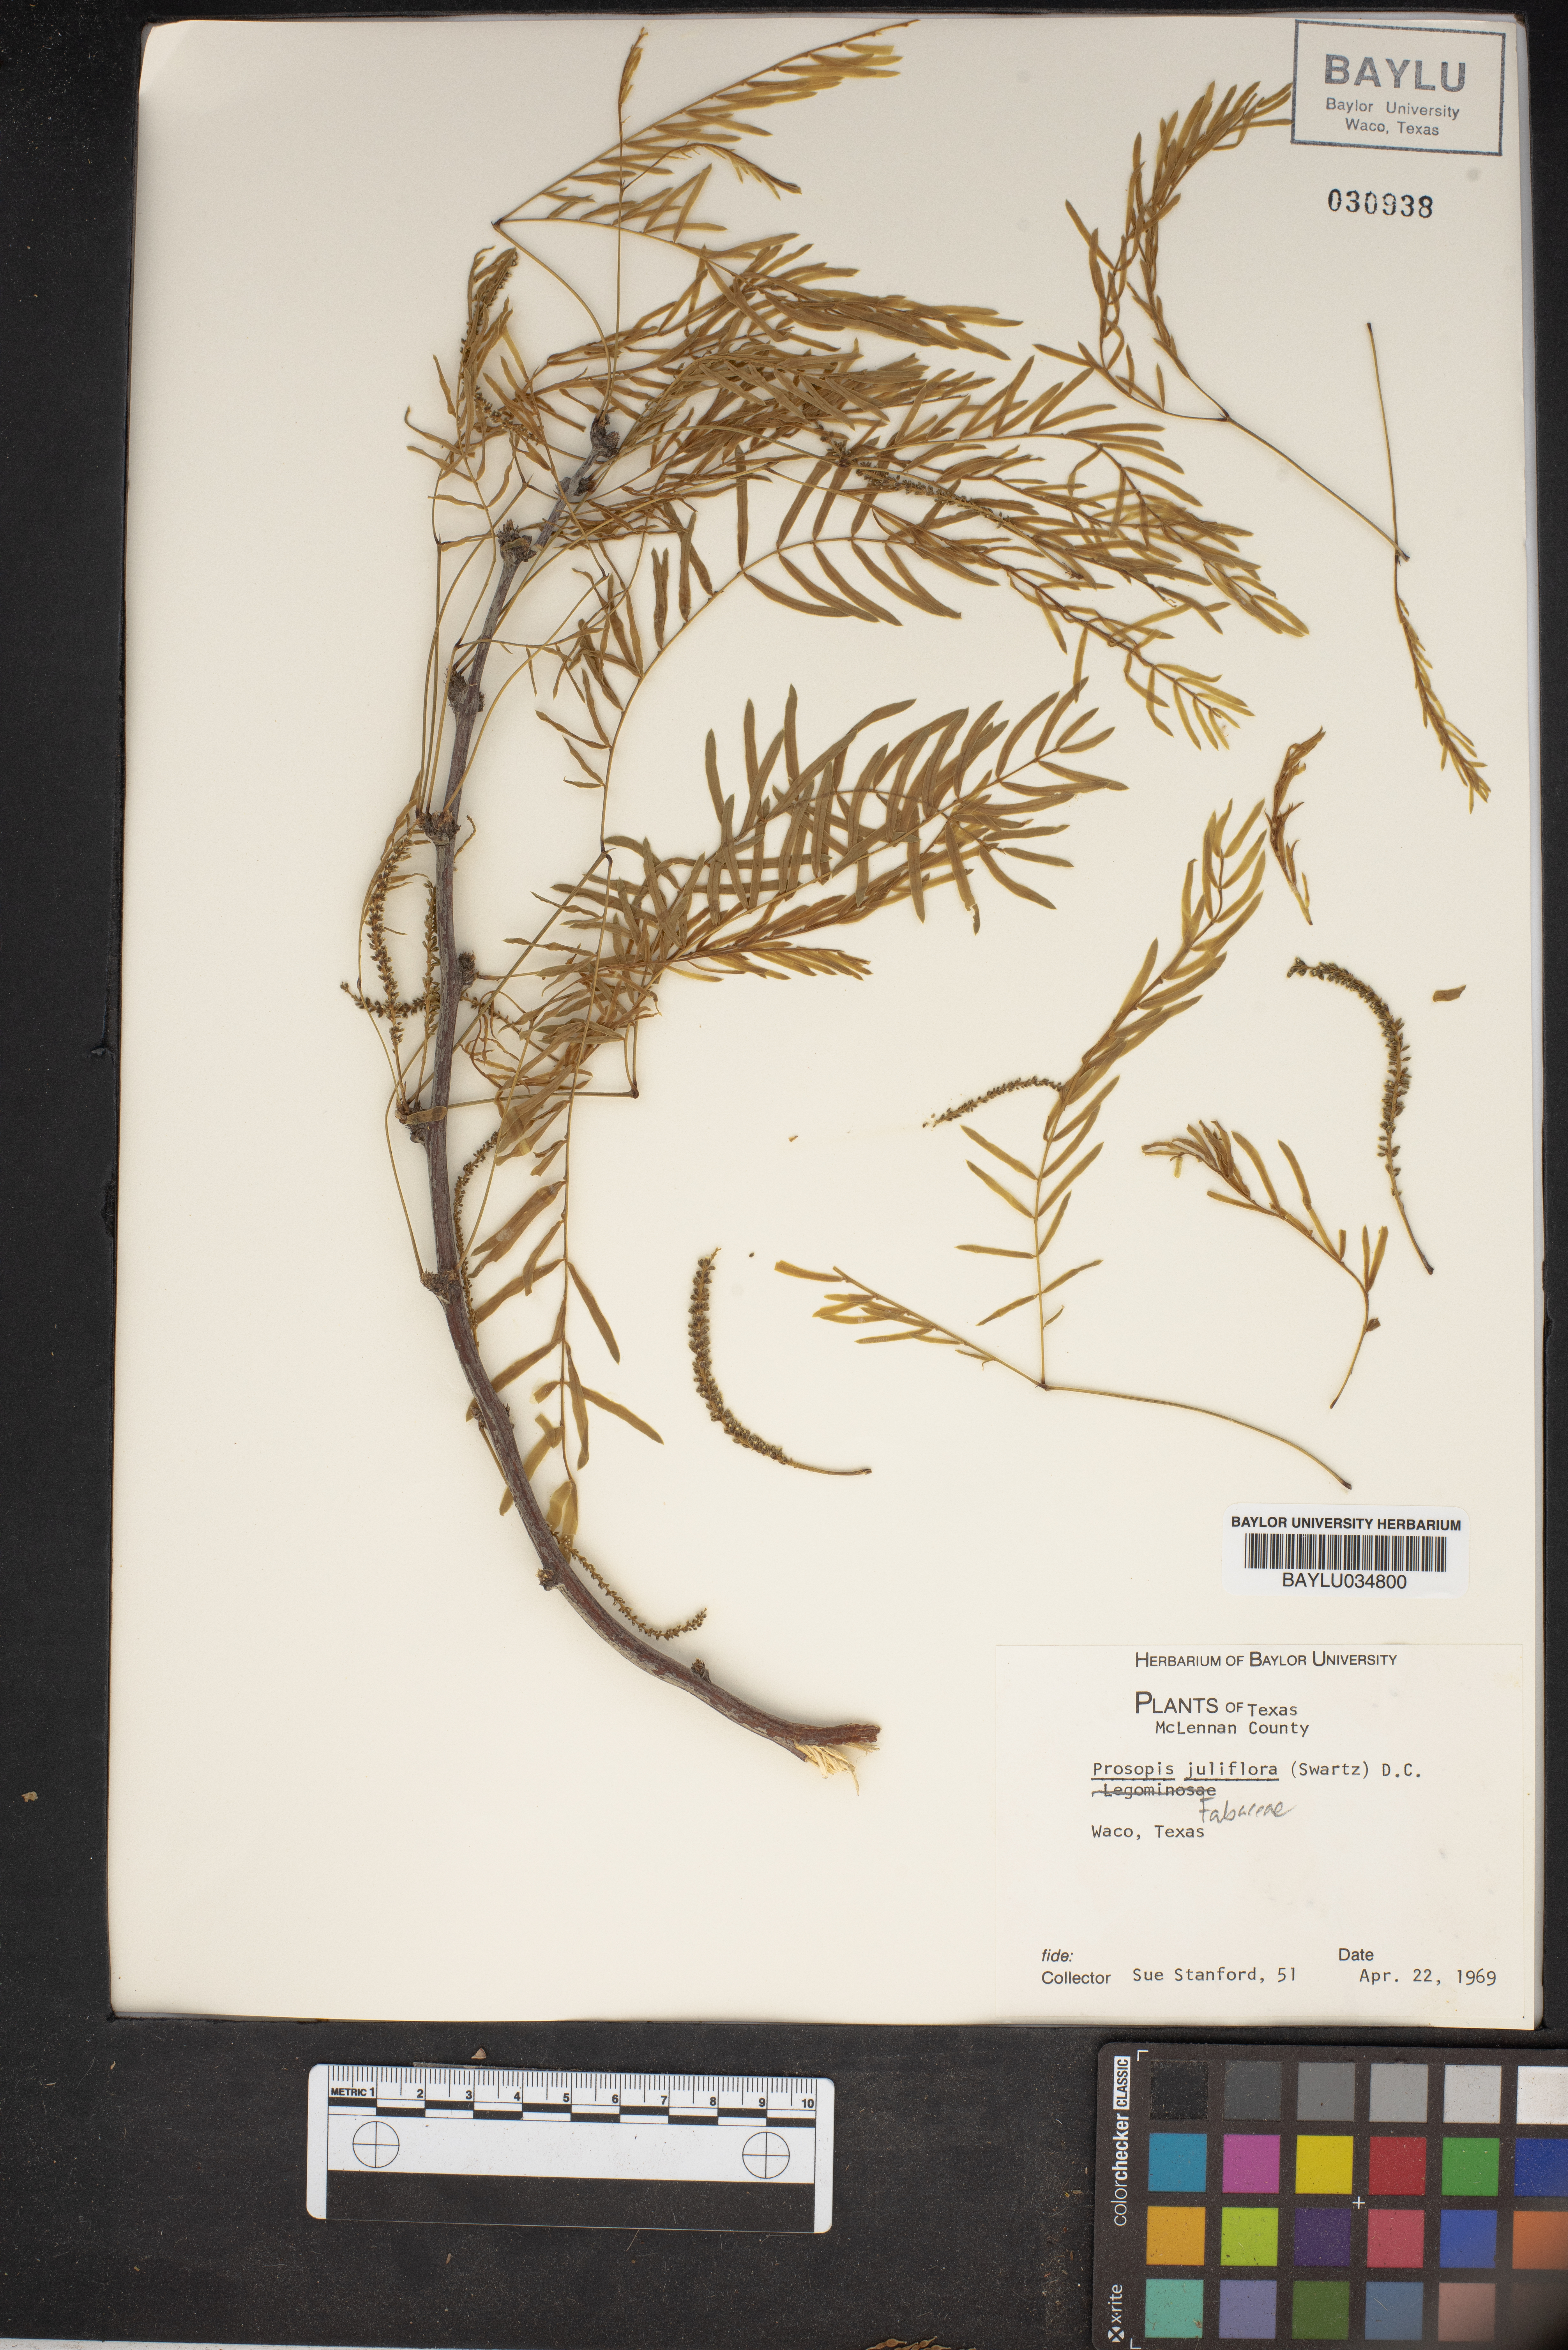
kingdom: Plantae
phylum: Tracheophyta
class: Magnoliopsida
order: Fabales
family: Fabaceae
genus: Prosopis
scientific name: Prosopis juliflora
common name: Mesquite
